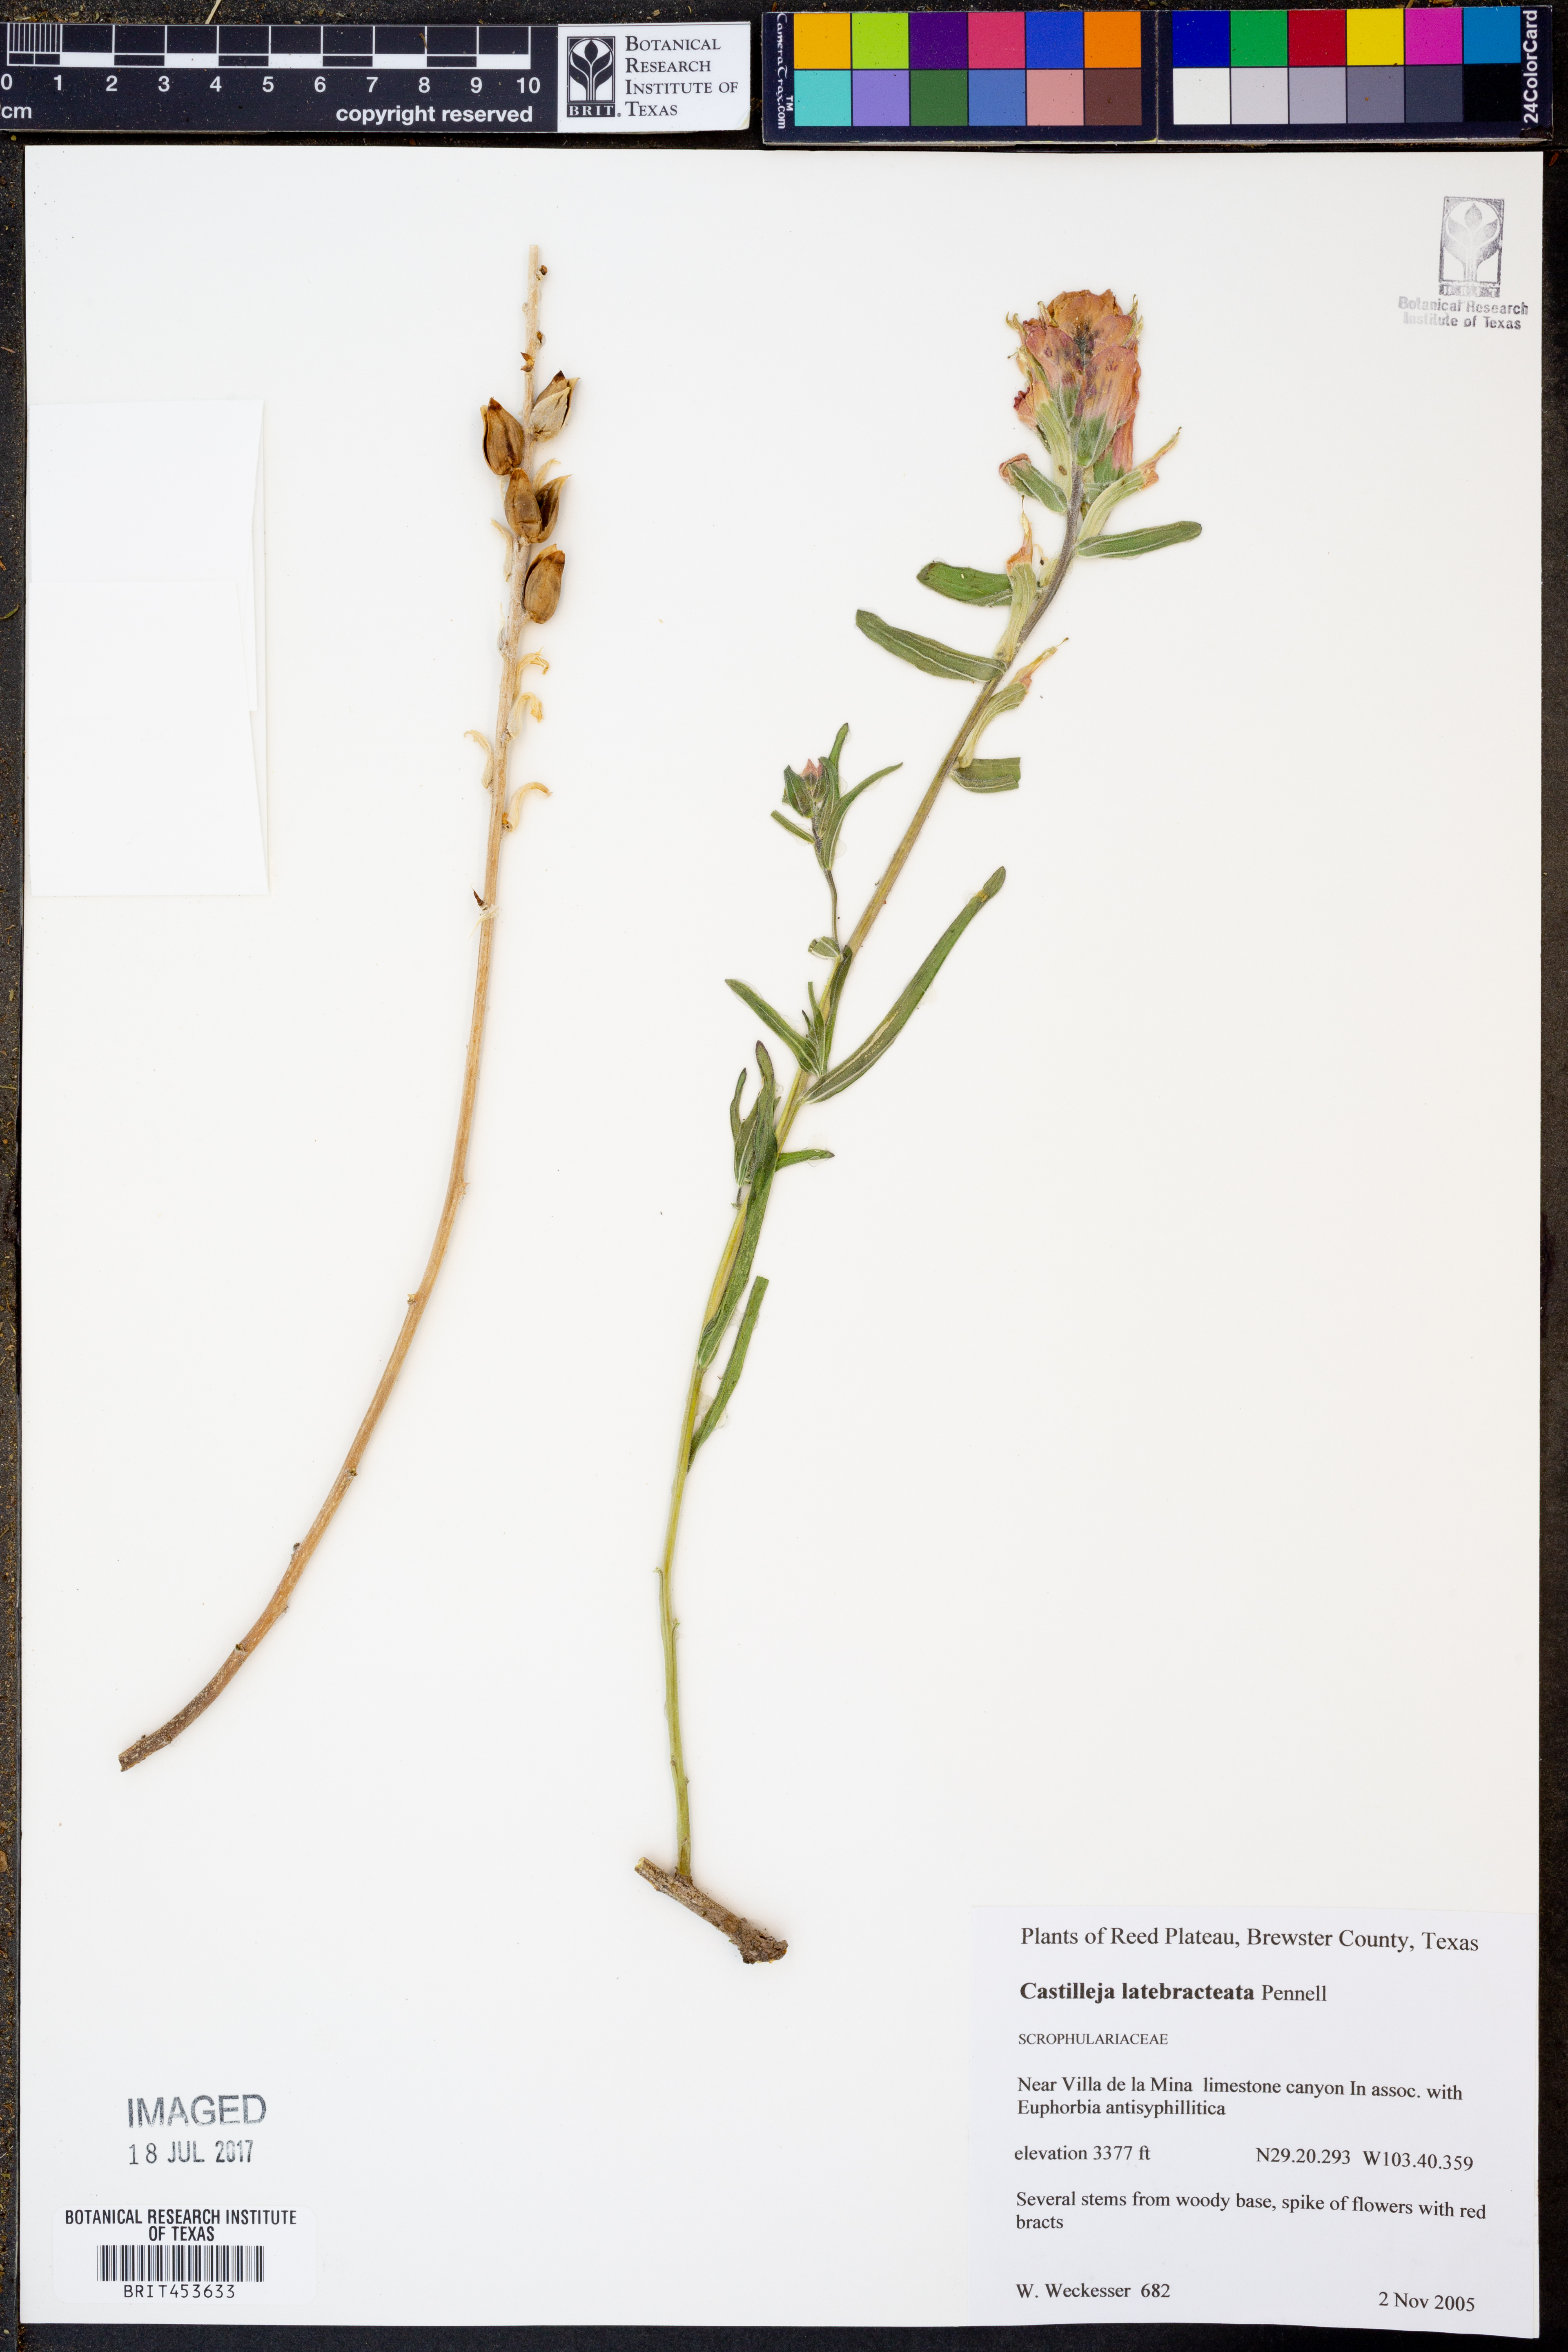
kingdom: Plantae
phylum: Tracheophyta
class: Magnoliopsida
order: Lamiales
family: Orobanchaceae
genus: Castilleja
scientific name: Castilleja rigida
